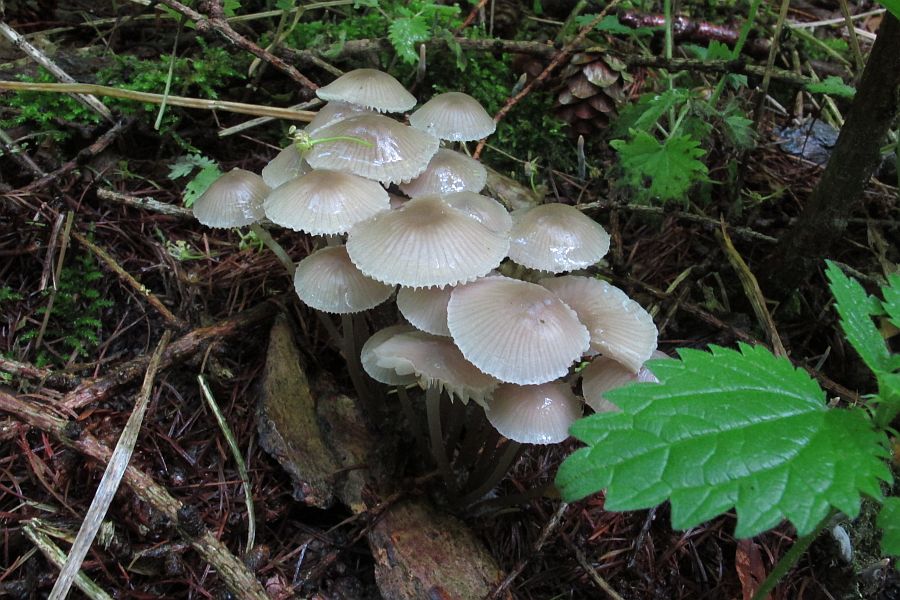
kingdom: Fungi
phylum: Basidiomycota
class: Agaricomycetes
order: Agaricales
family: Mycenaceae
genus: Mycena
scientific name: Mycena abramsii
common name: sommer-huesvamp
